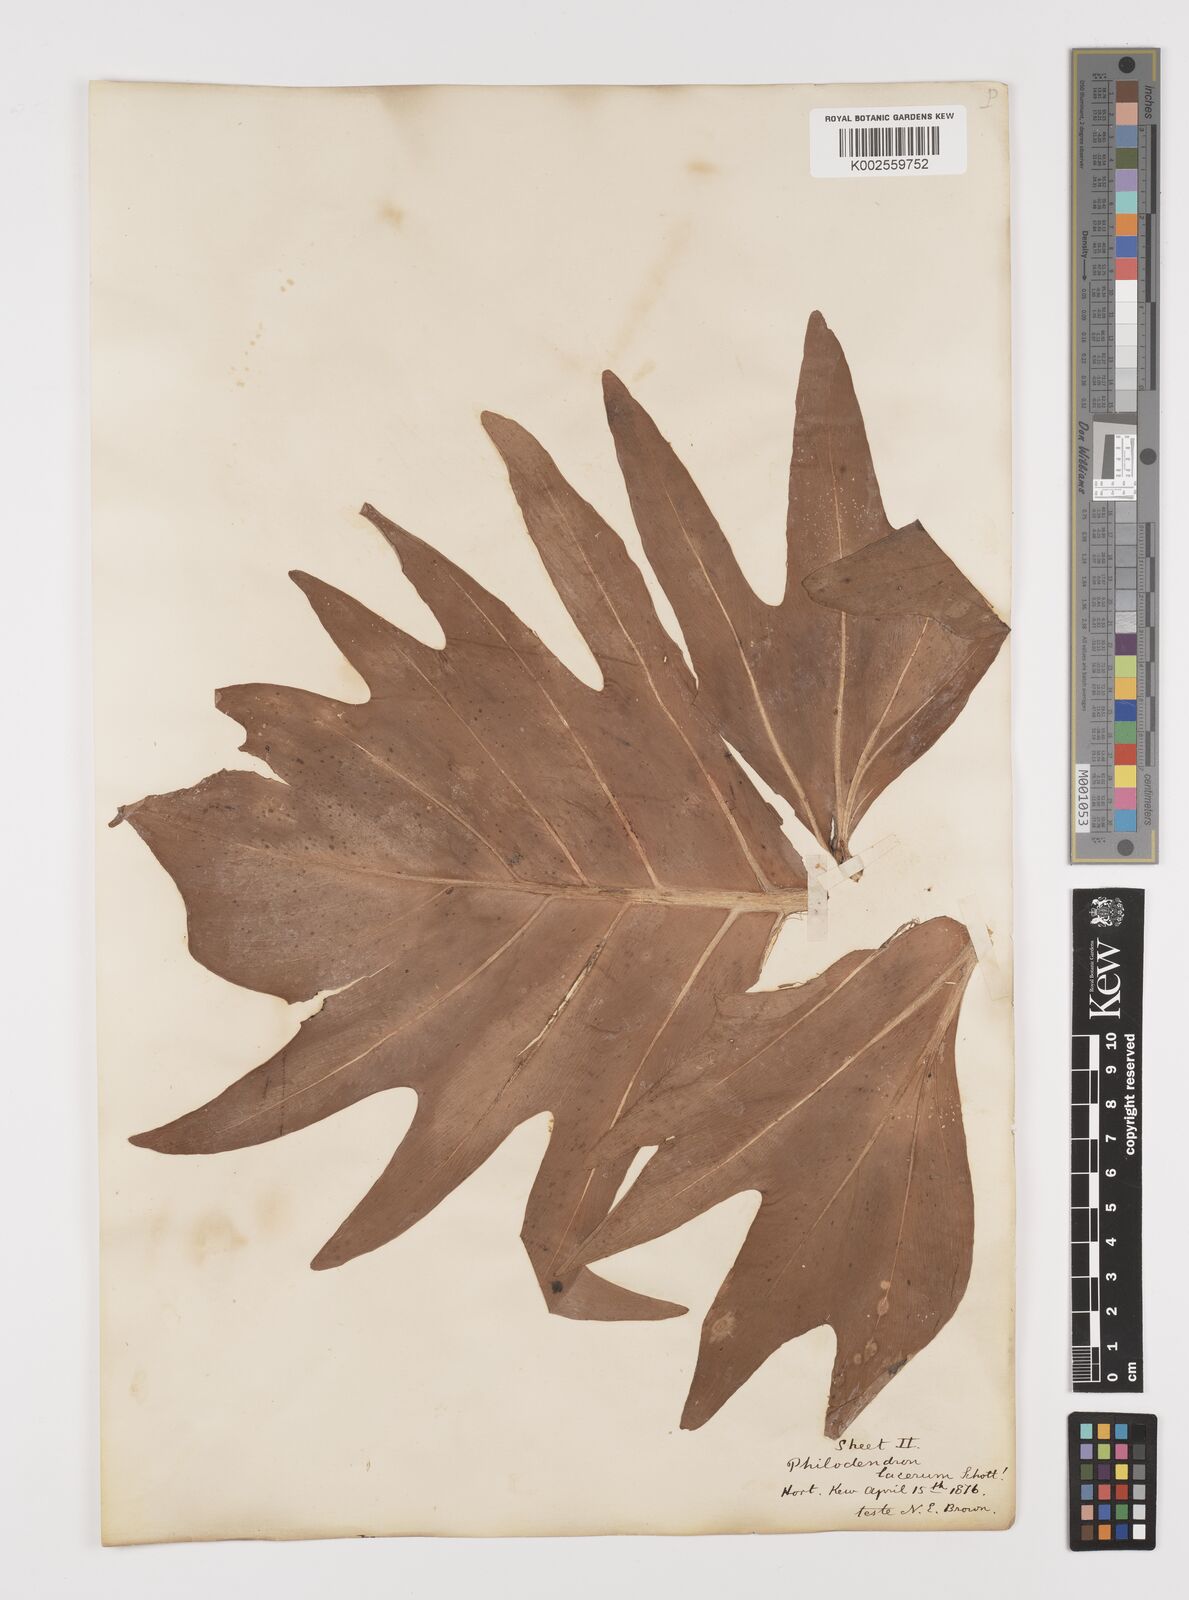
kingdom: Plantae
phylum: Tracheophyta
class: Liliopsida
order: Alismatales
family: Araceae
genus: Philodendron
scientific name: Philodendron lacerum
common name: Philodendron
